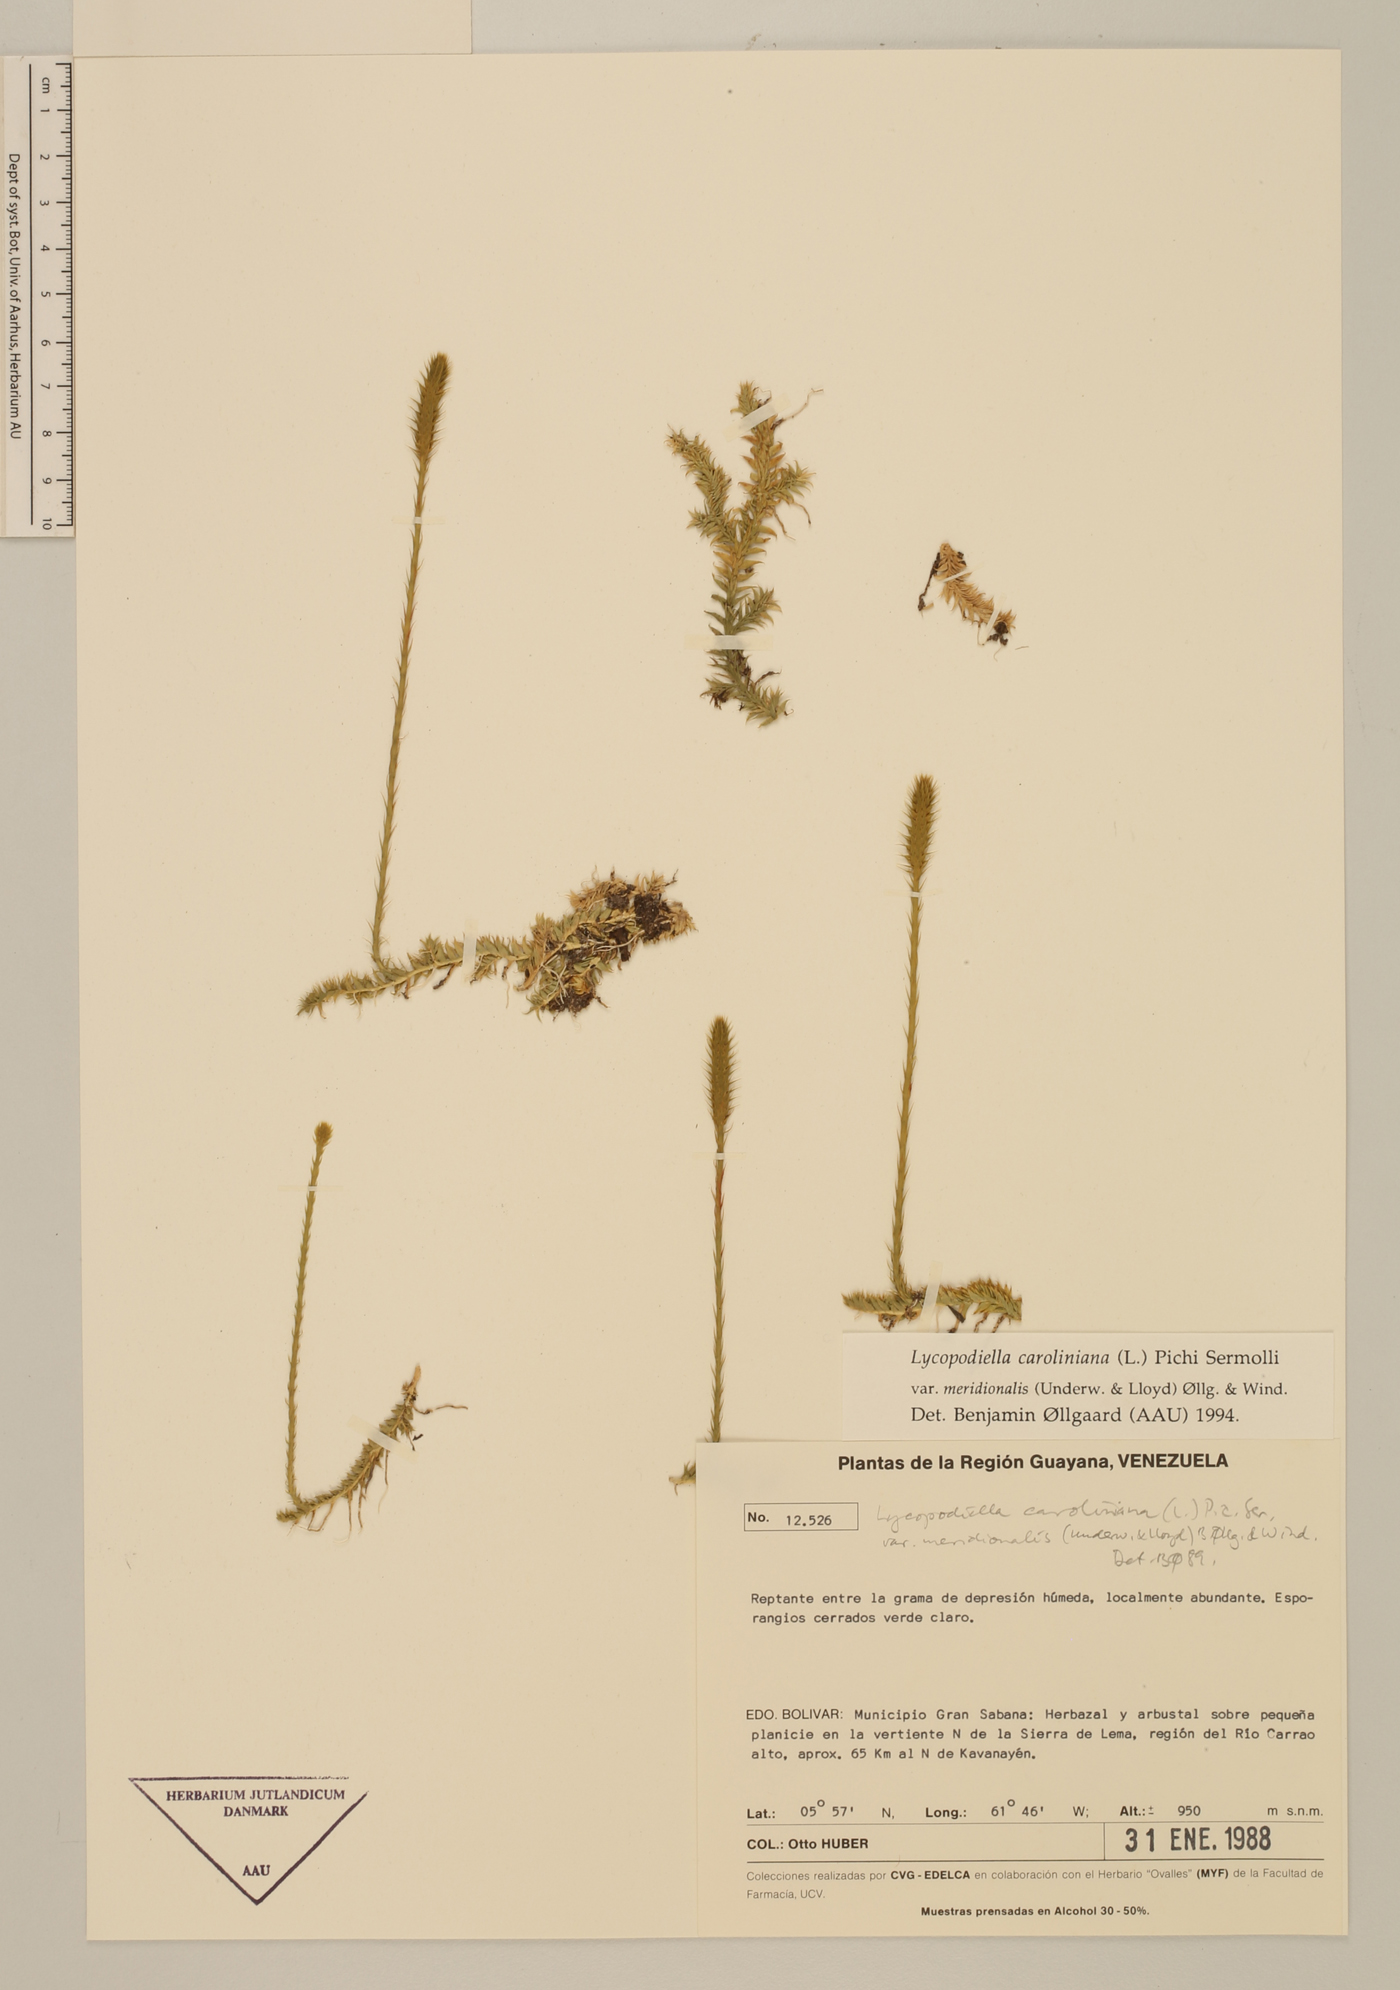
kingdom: Plantae
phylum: Tracheophyta
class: Lycopodiopsida
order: Lycopodiales
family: Lycopodiaceae
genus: Pseudolycopodiella
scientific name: Pseudolycopodiella meridionalis
